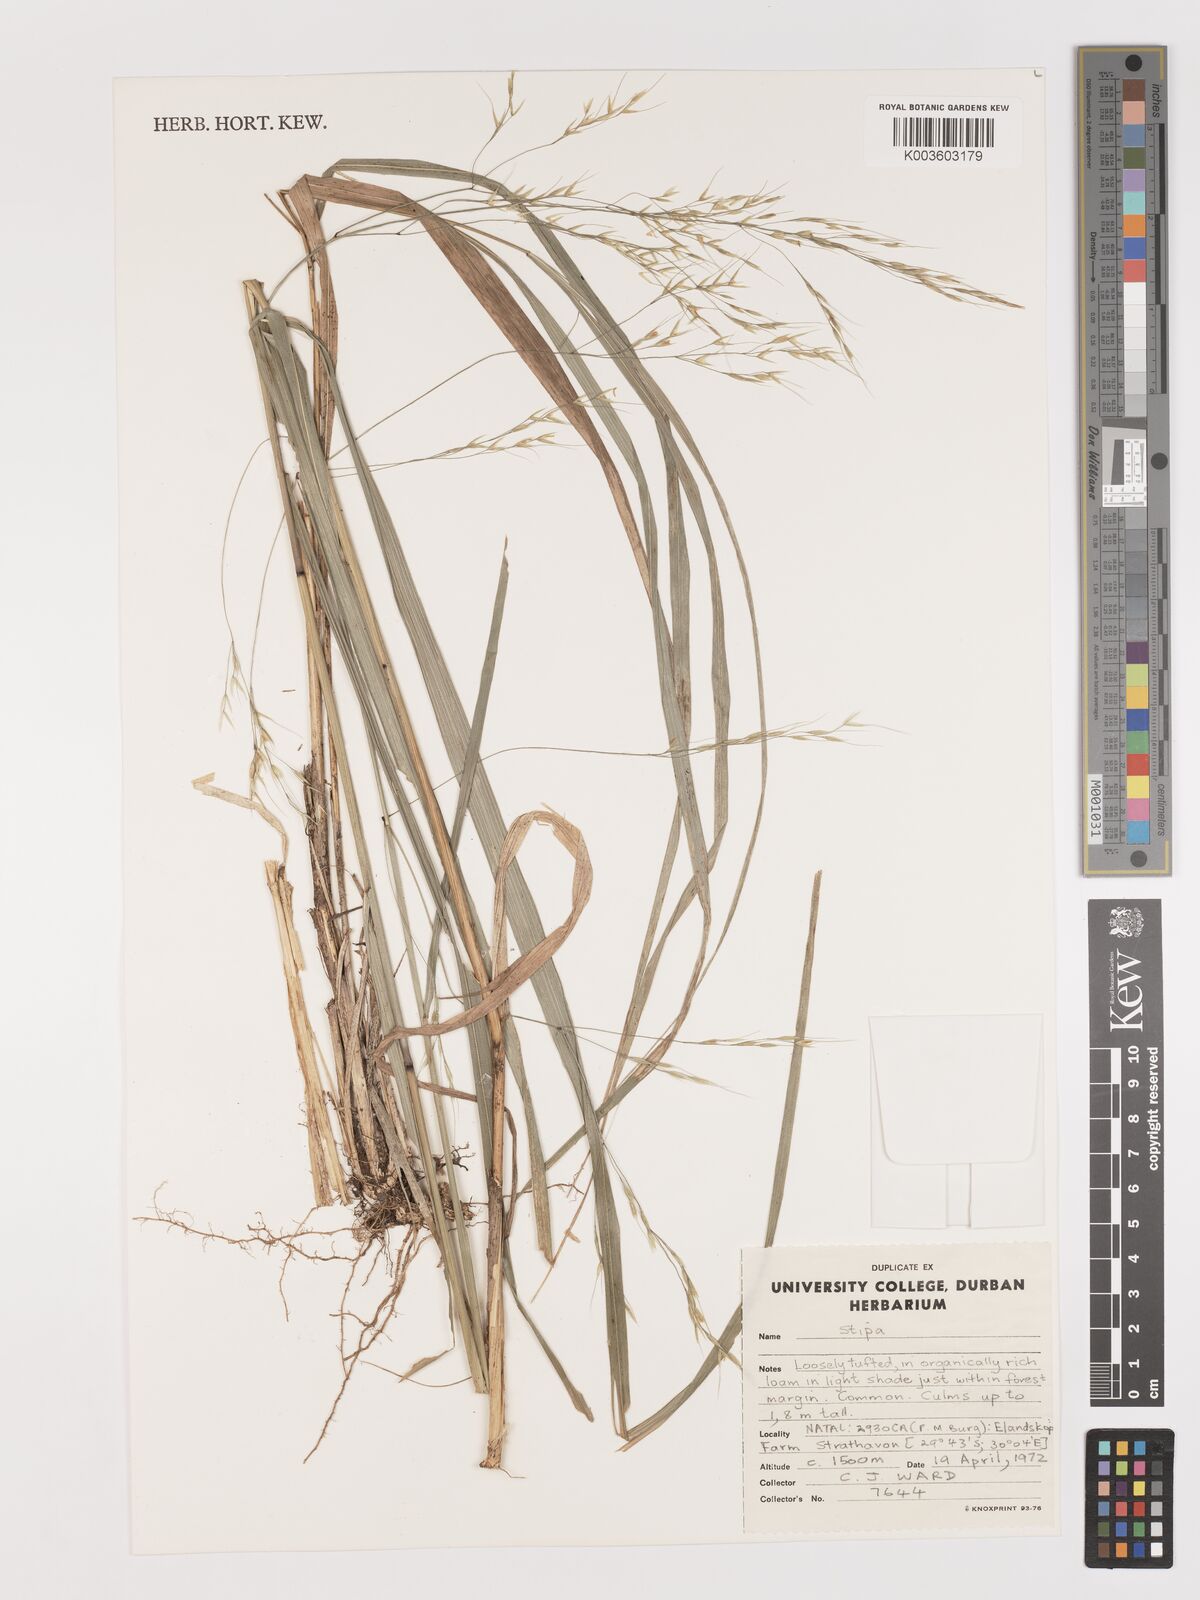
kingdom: Plantae
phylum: Tracheophyta
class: Liliopsida
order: Poales
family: Poaceae
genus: Stipa
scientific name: Stipa
